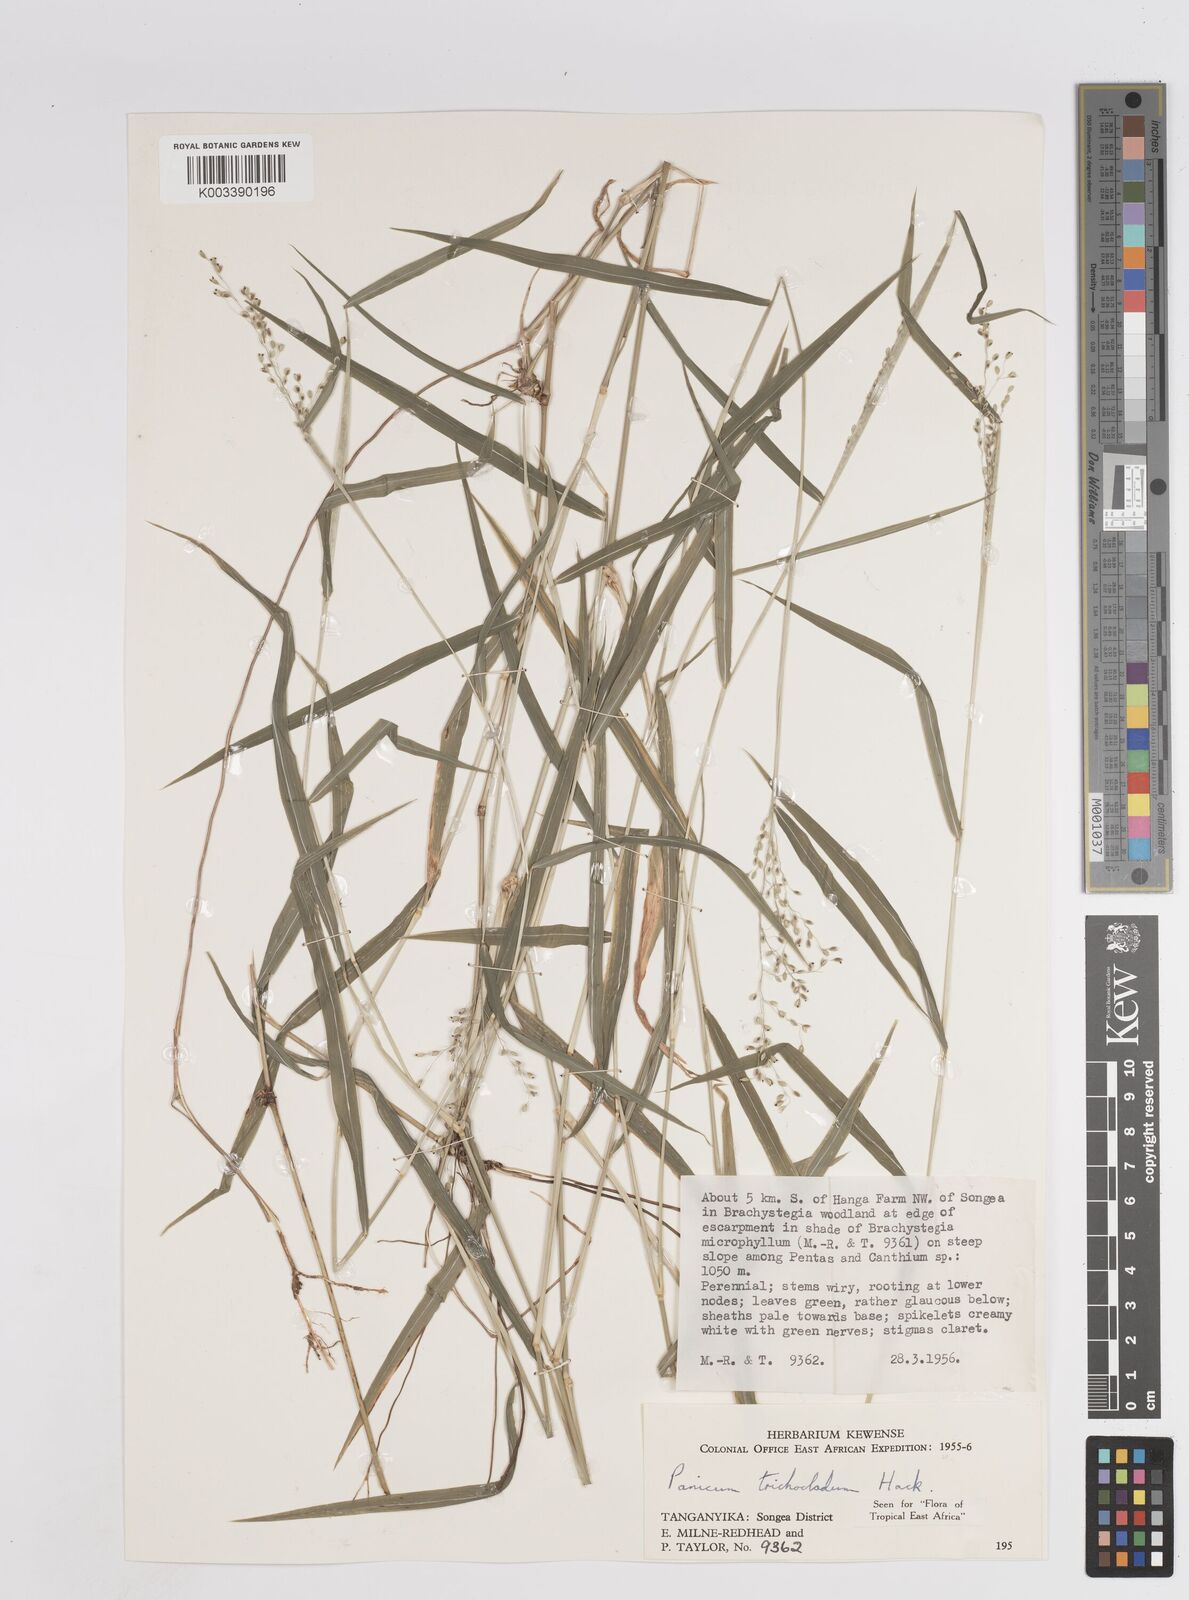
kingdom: Plantae
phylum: Tracheophyta
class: Liliopsida
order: Poales
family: Poaceae
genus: Panicum
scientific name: Panicum trichocladum
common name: Donkey grass
